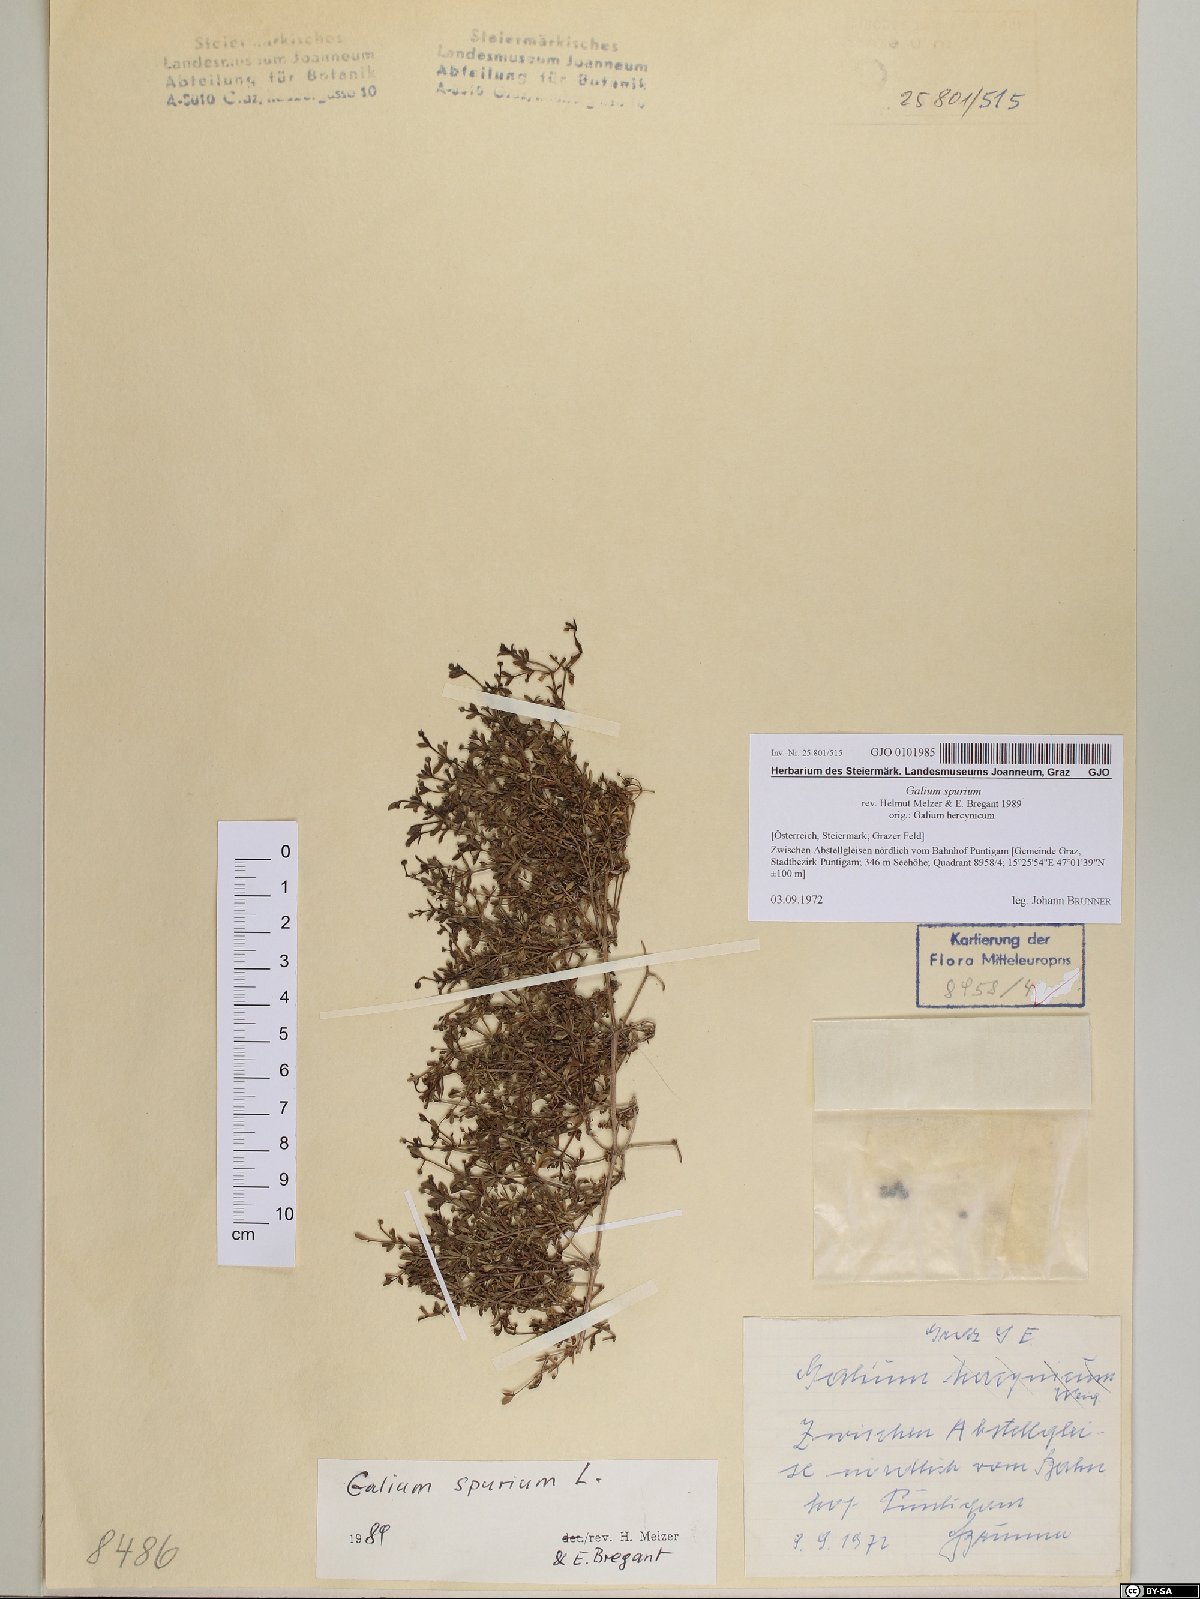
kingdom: Plantae
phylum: Tracheophyta
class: Magnoliopsida
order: Gentianales
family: Rubiaceae
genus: Galium
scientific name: Galium spurium
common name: False cleavers
